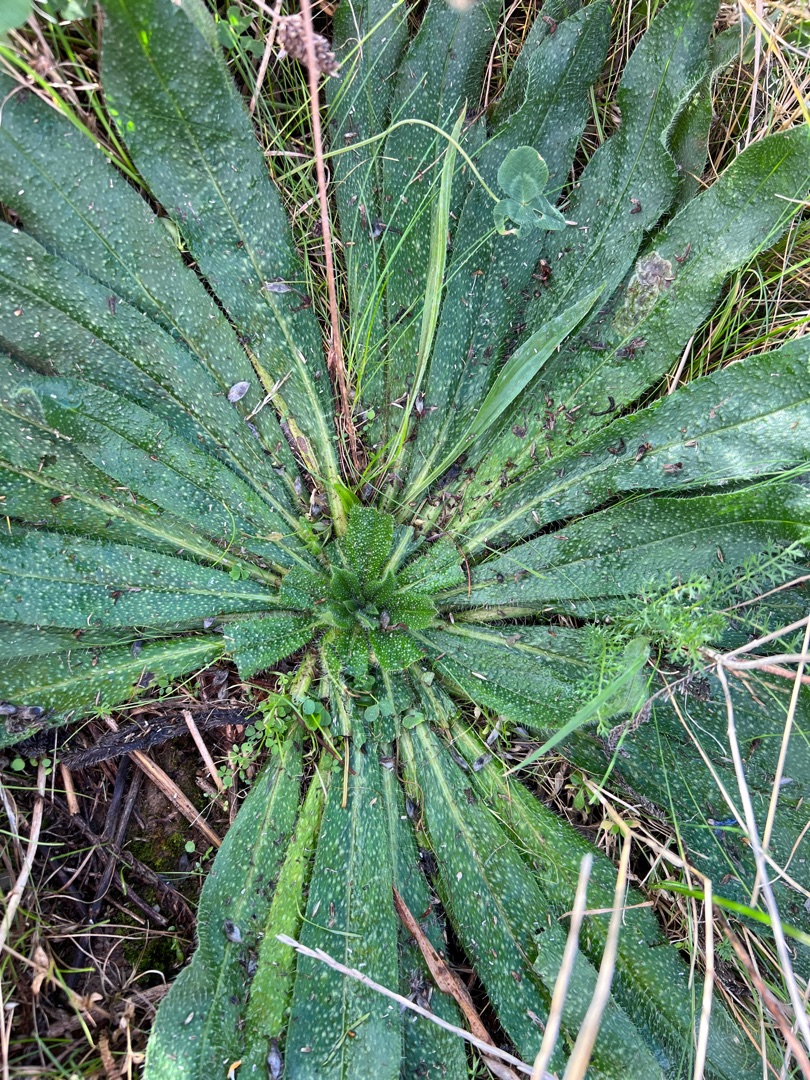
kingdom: Plantae
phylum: Tracheophyta
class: Magnoliopsida
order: Boraginales
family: Boraginaceae
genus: Echium
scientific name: Echium vulgare
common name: Slangehoved
